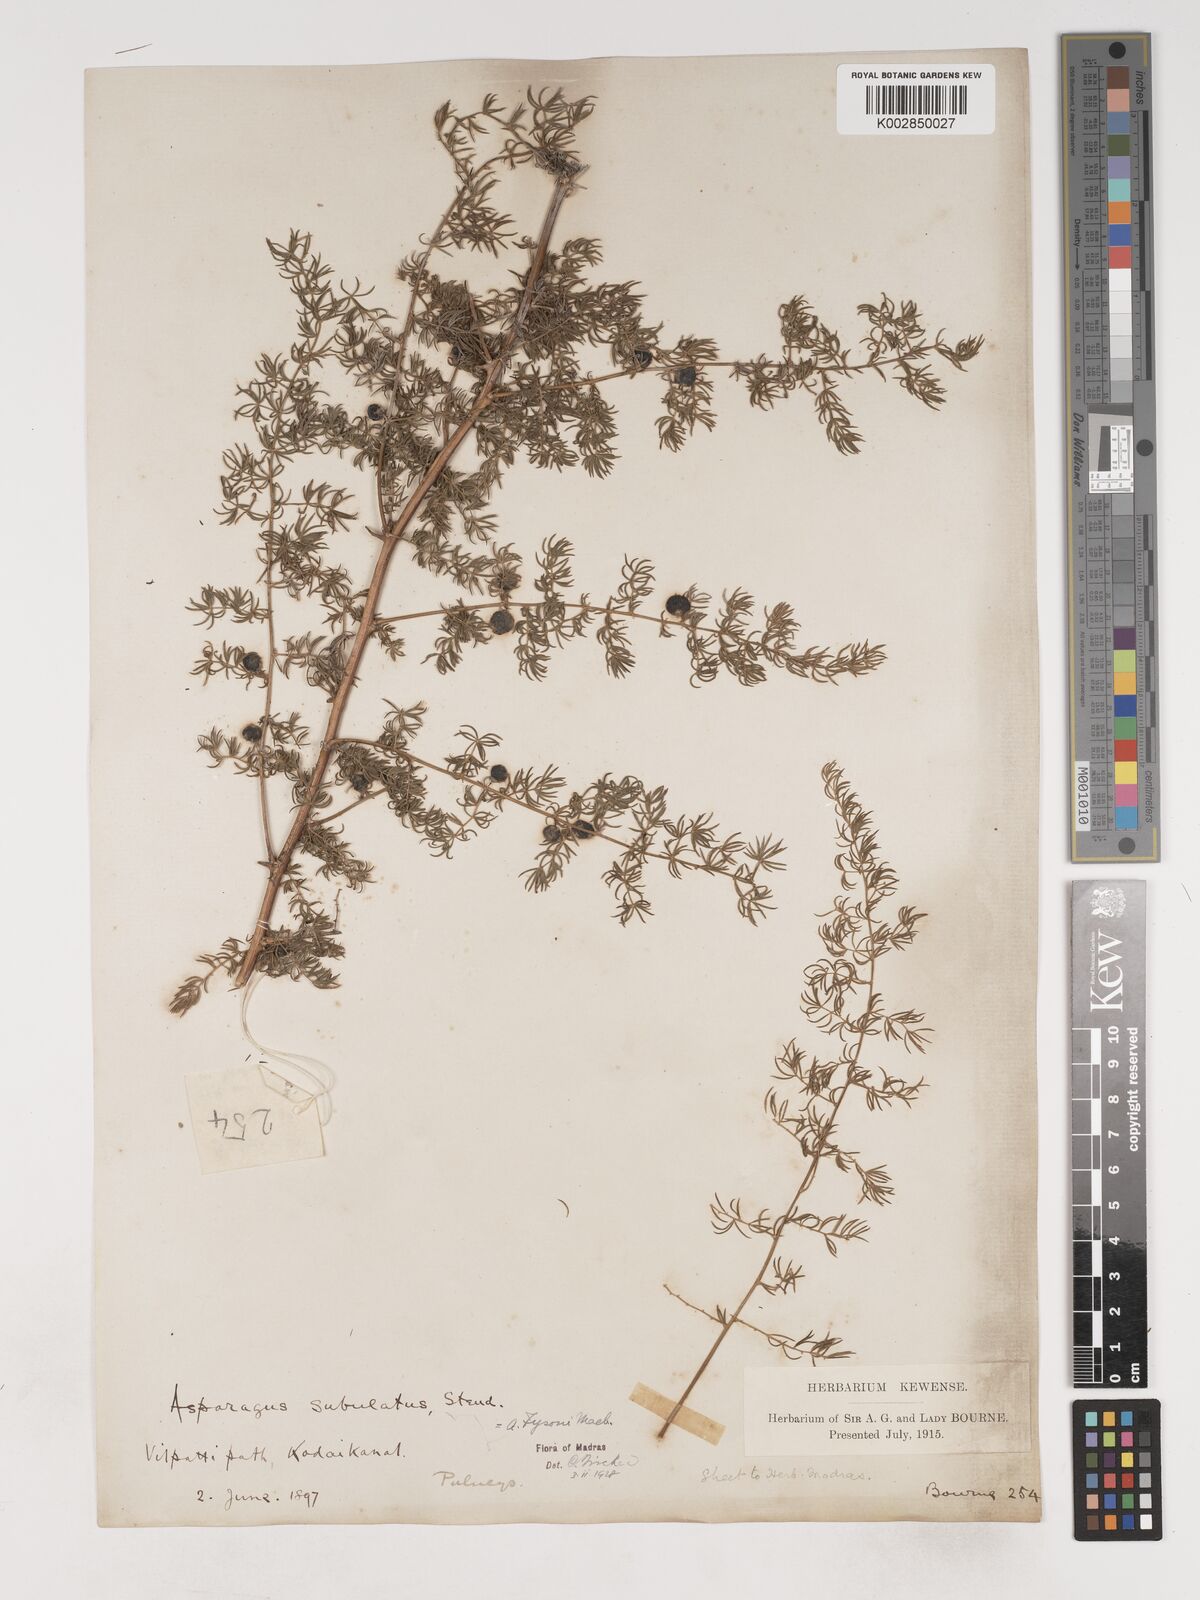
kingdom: Plantae
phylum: Tracheophyta
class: Liliopsida
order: Asparagales
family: Asparagaceae
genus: Asparagus
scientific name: Asparagus fysonii
